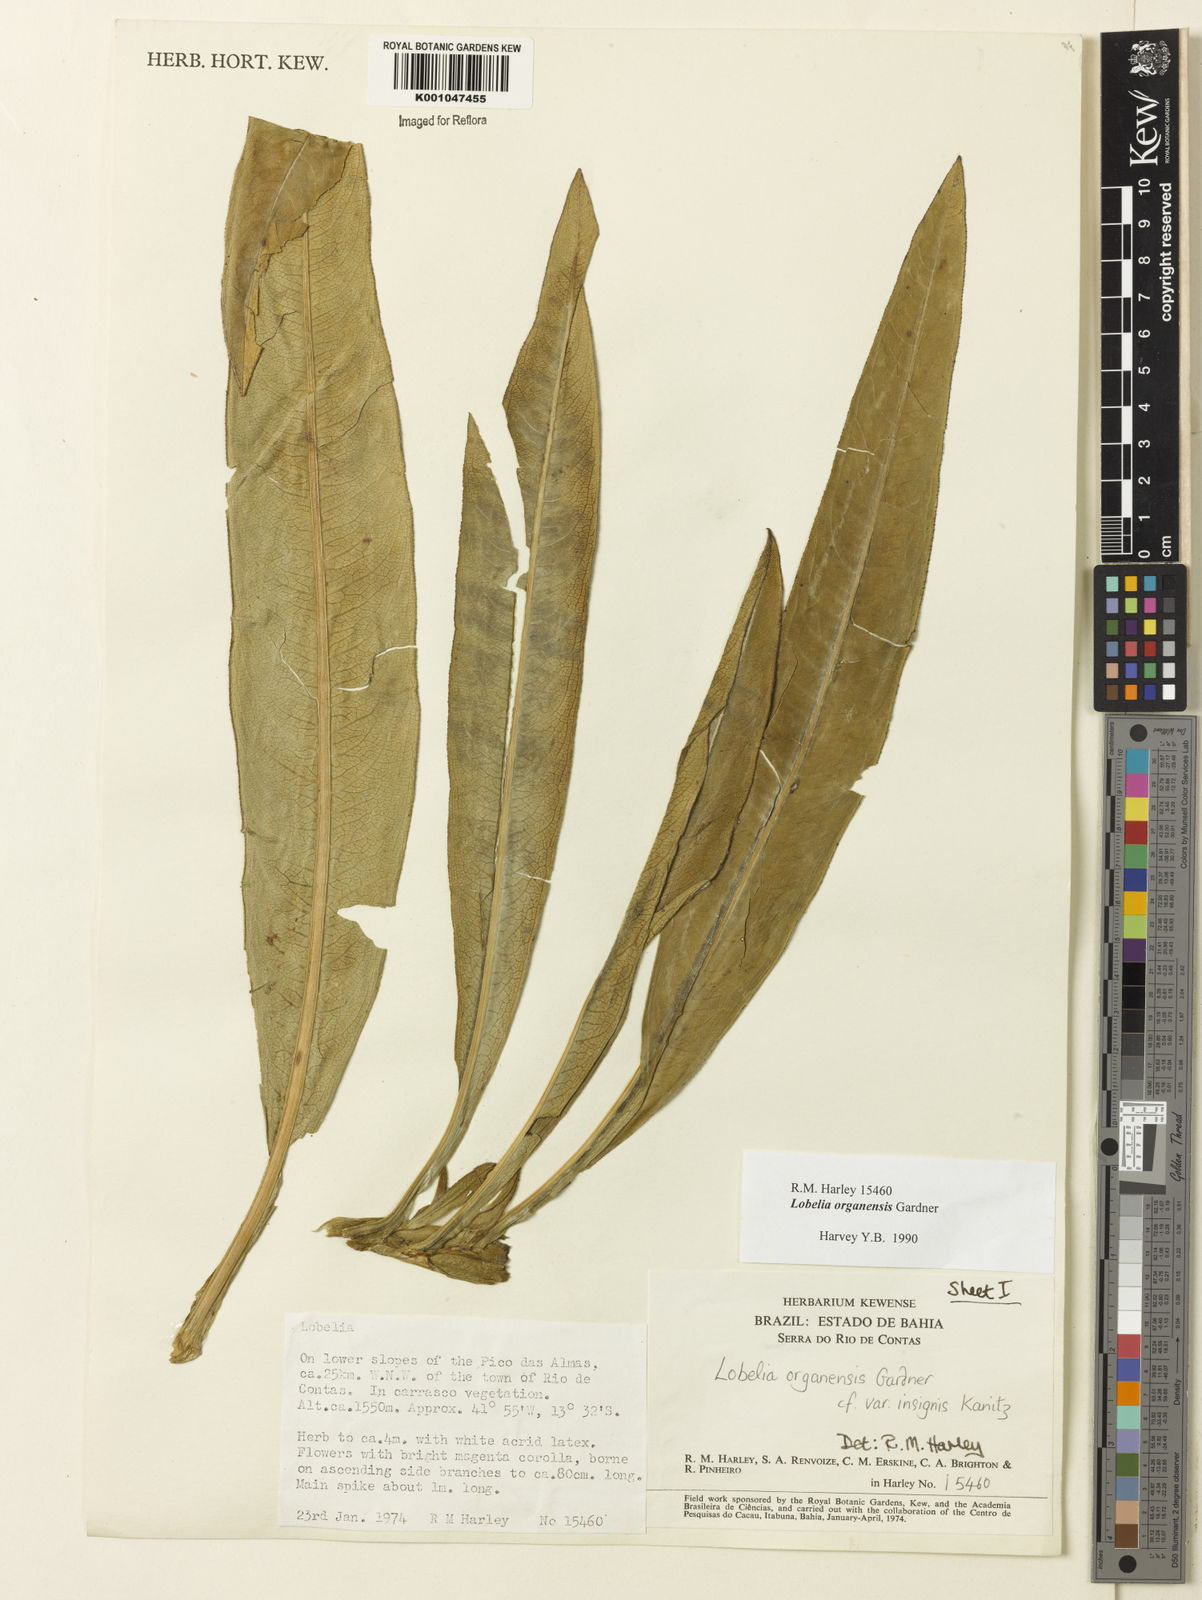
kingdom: Plantae
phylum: Tracheophyta
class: Magnoliopsida
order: Asterales
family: Campanulaceae
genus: Lobelia
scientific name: Lobelia organensis
